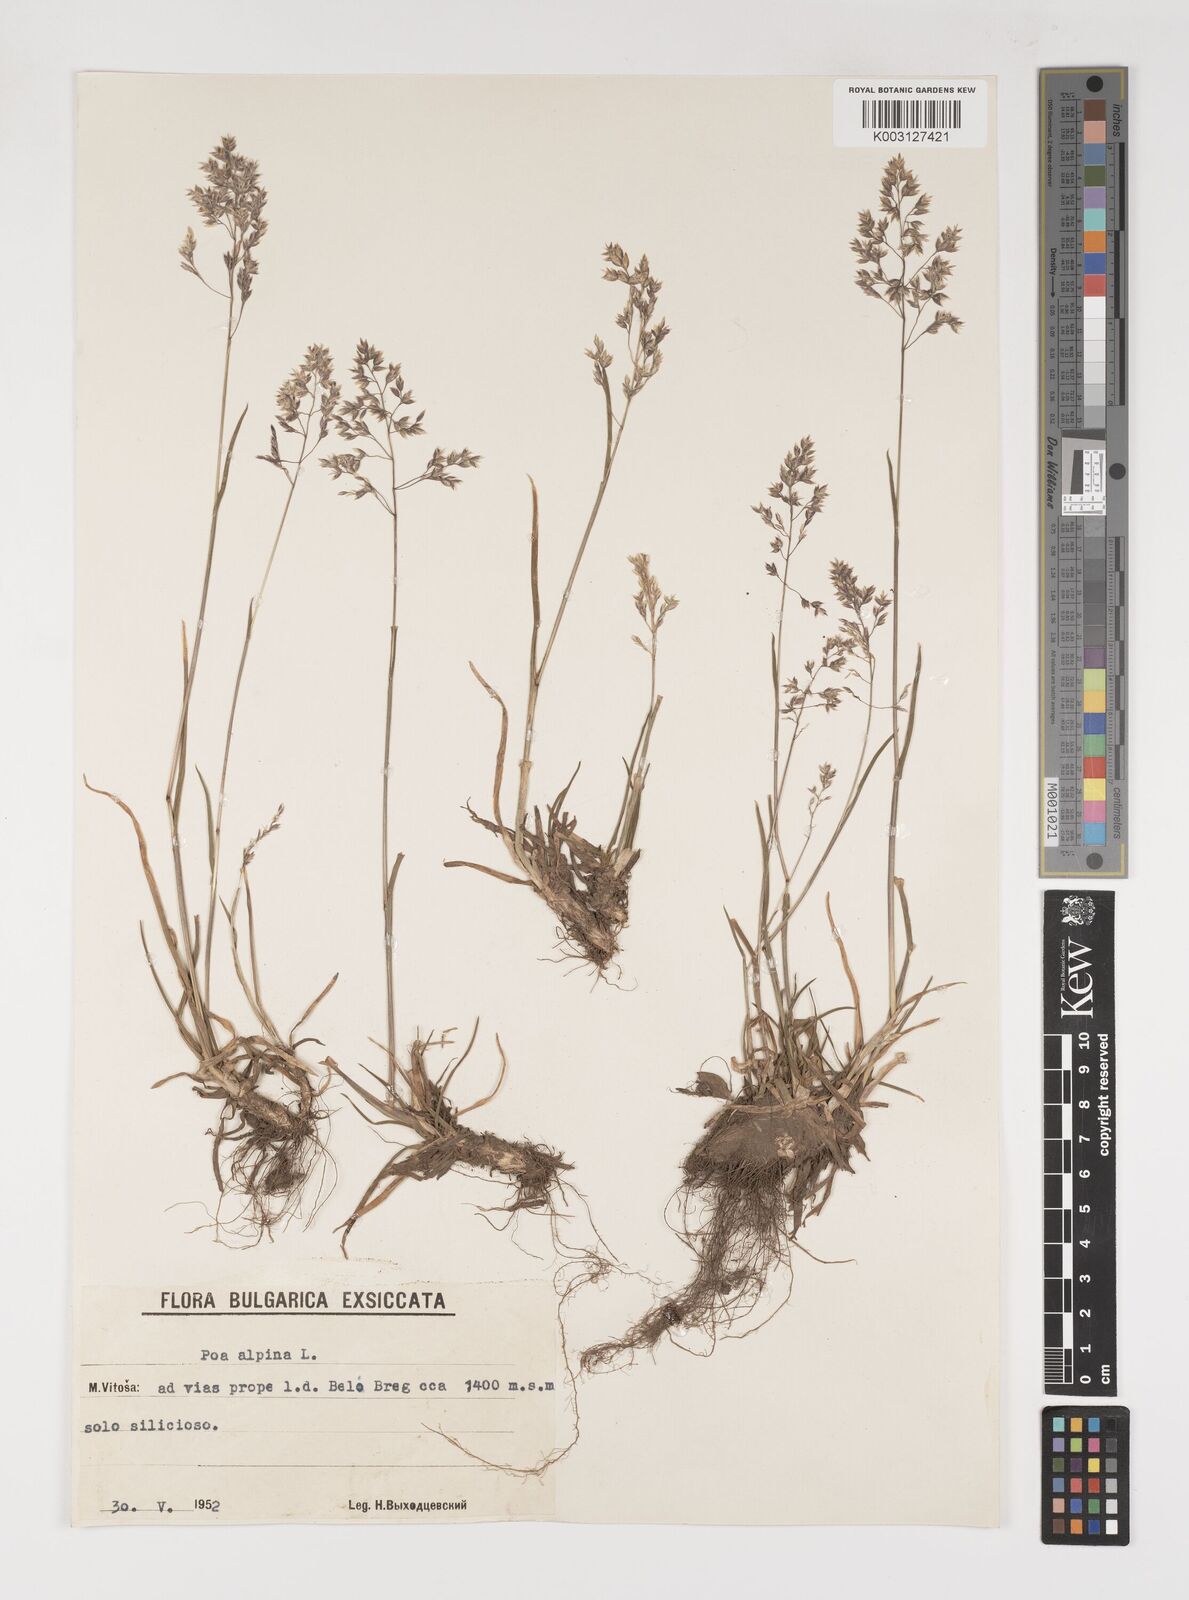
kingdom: Plantae
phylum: Tracheophyta
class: Liliopsida
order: Poales
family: Poaceae
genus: Poa
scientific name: Poa alpina
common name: Alpine bluegrass
